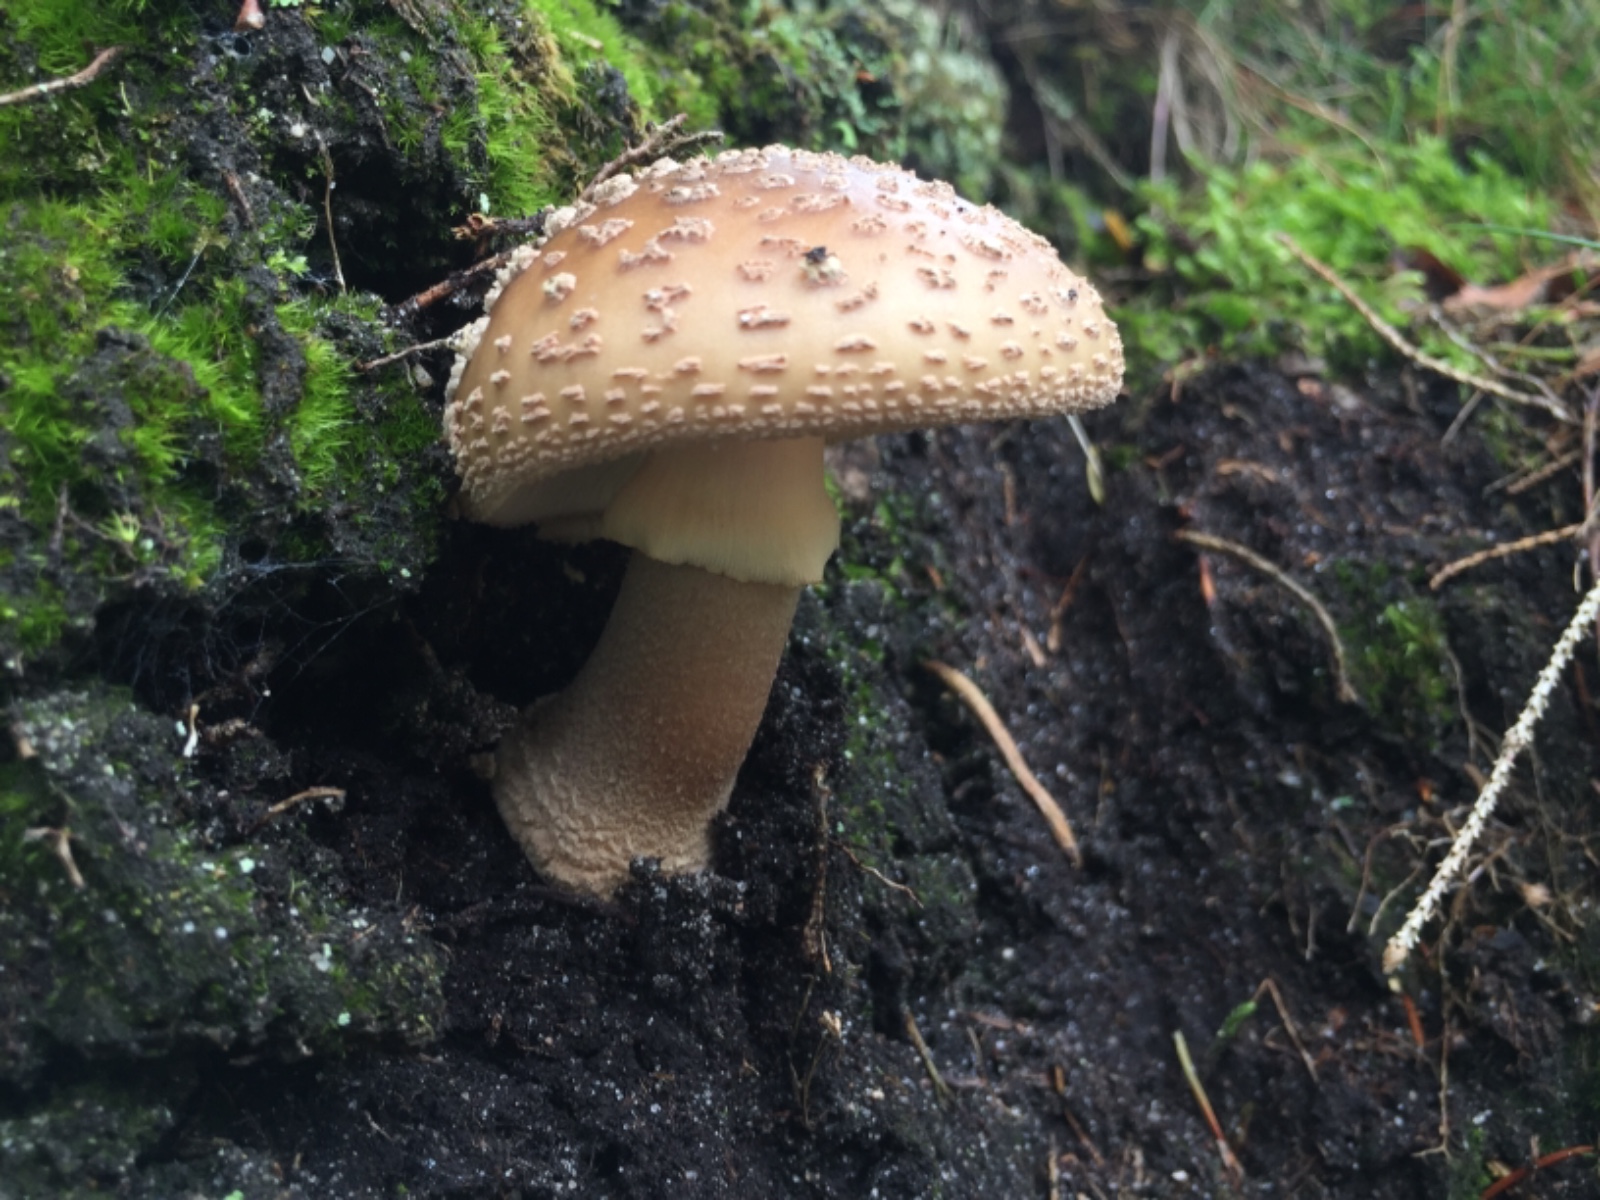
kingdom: Fungi
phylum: Basidiomycota
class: Agaricomycetes
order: Agaricales
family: Amanitaceae
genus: Amanita
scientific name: Amanita rubescens
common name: Blusher
